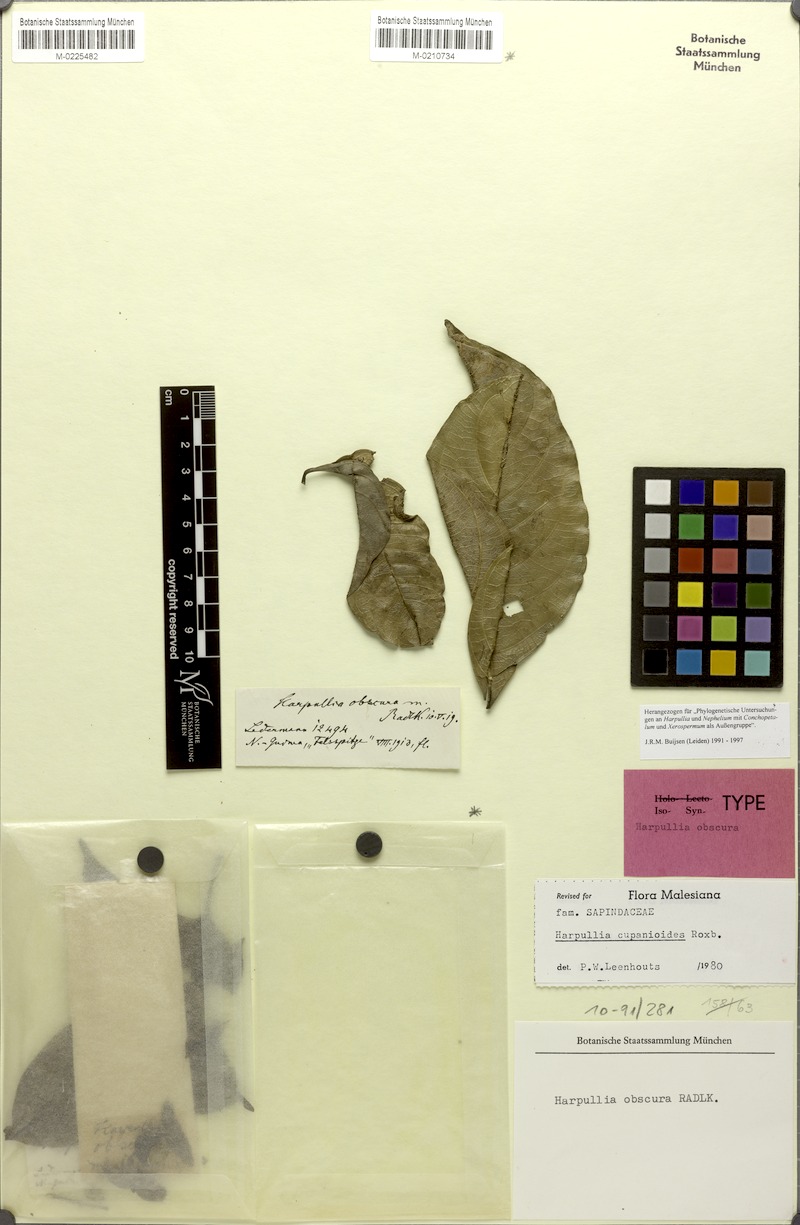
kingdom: Plantae
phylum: Tracheophyta
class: Magnoliopsida
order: Sapindales
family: Sapindaceae
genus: Harpullia
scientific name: Harpullia cupanioides
